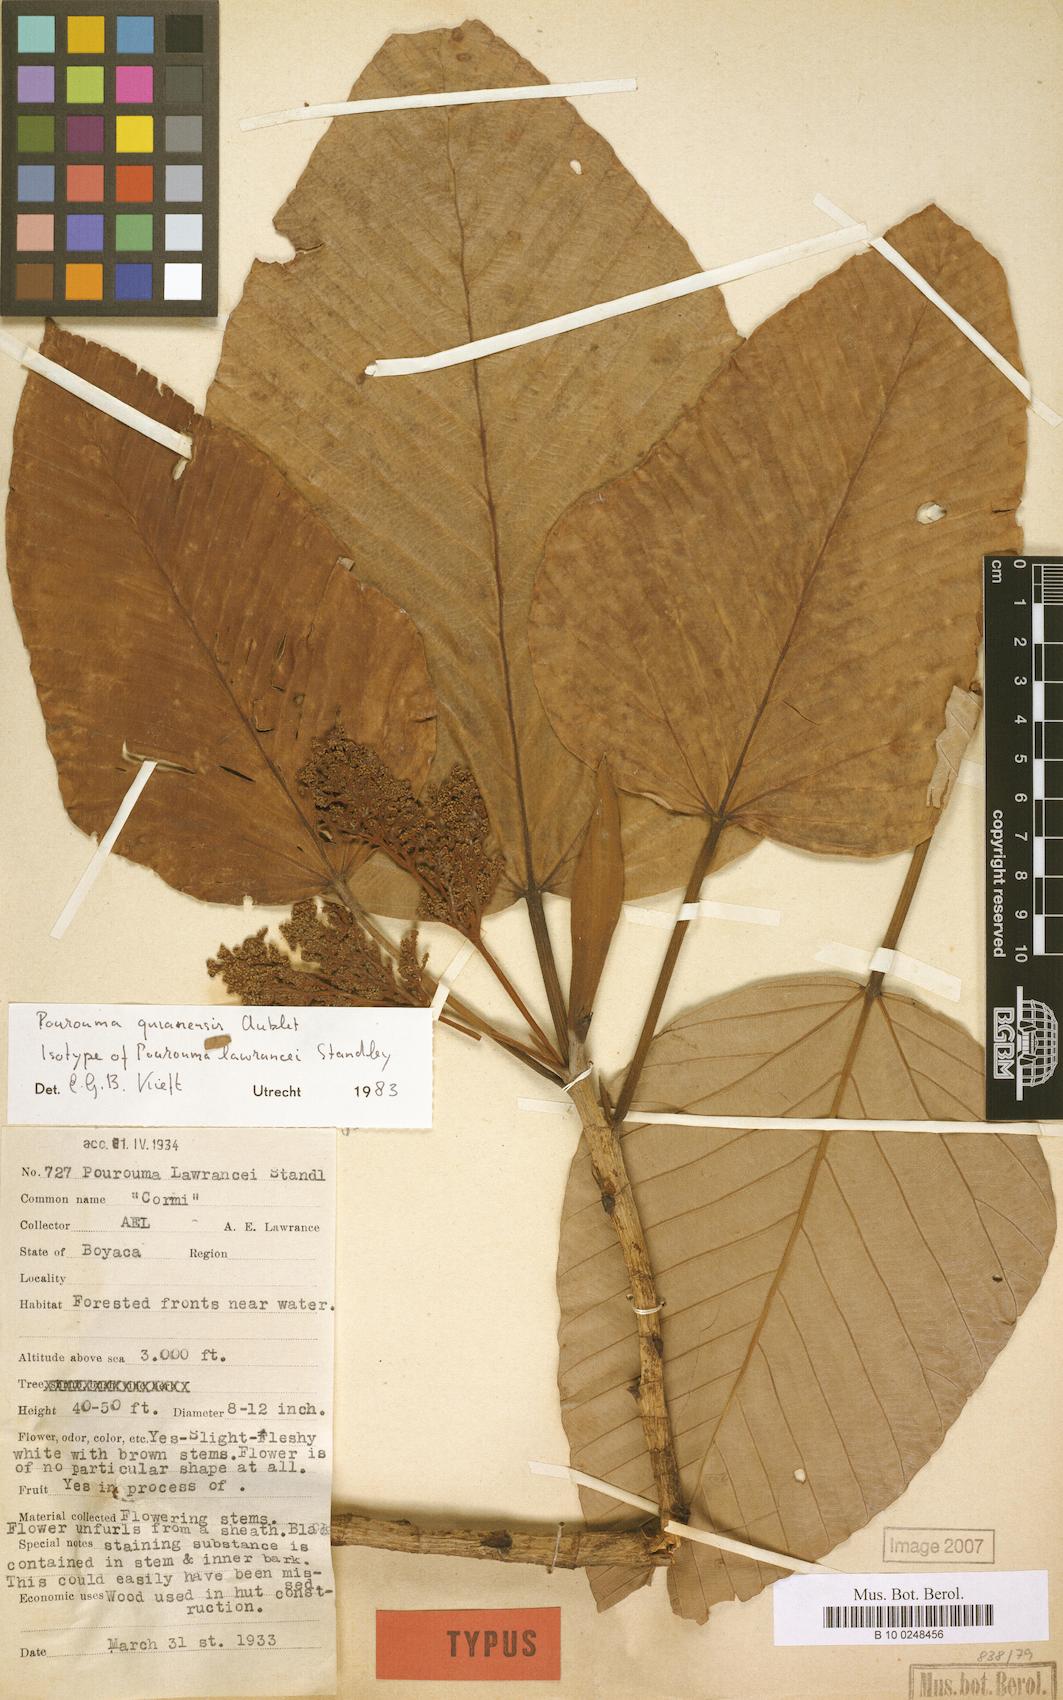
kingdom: Plantae
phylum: Tracheophyta
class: Magnoliopsida
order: Rosales
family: Urticaceae
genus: Pourouma
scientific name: Pourouma guianensis
